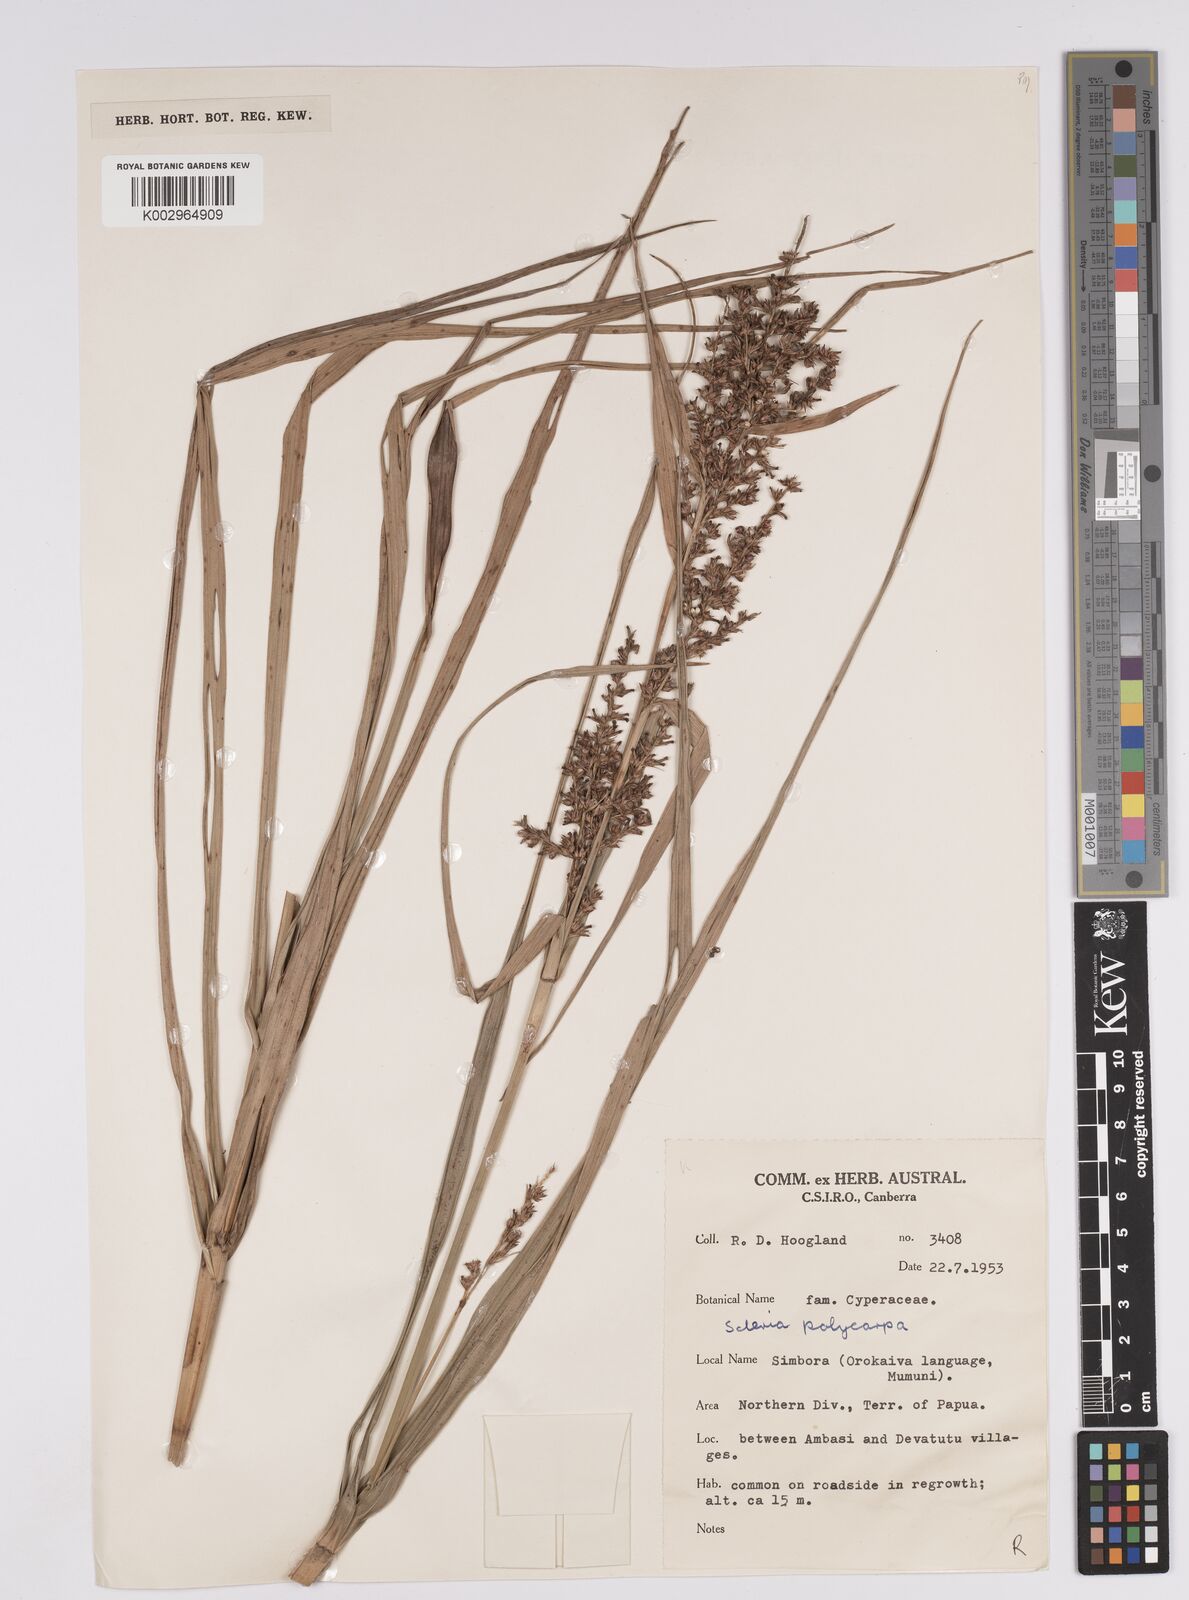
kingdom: Plantae
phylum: Tracheophyta
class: Liliopsida
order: Poales
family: Cyperaceae
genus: Scleria
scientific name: Scleria polycarpa
